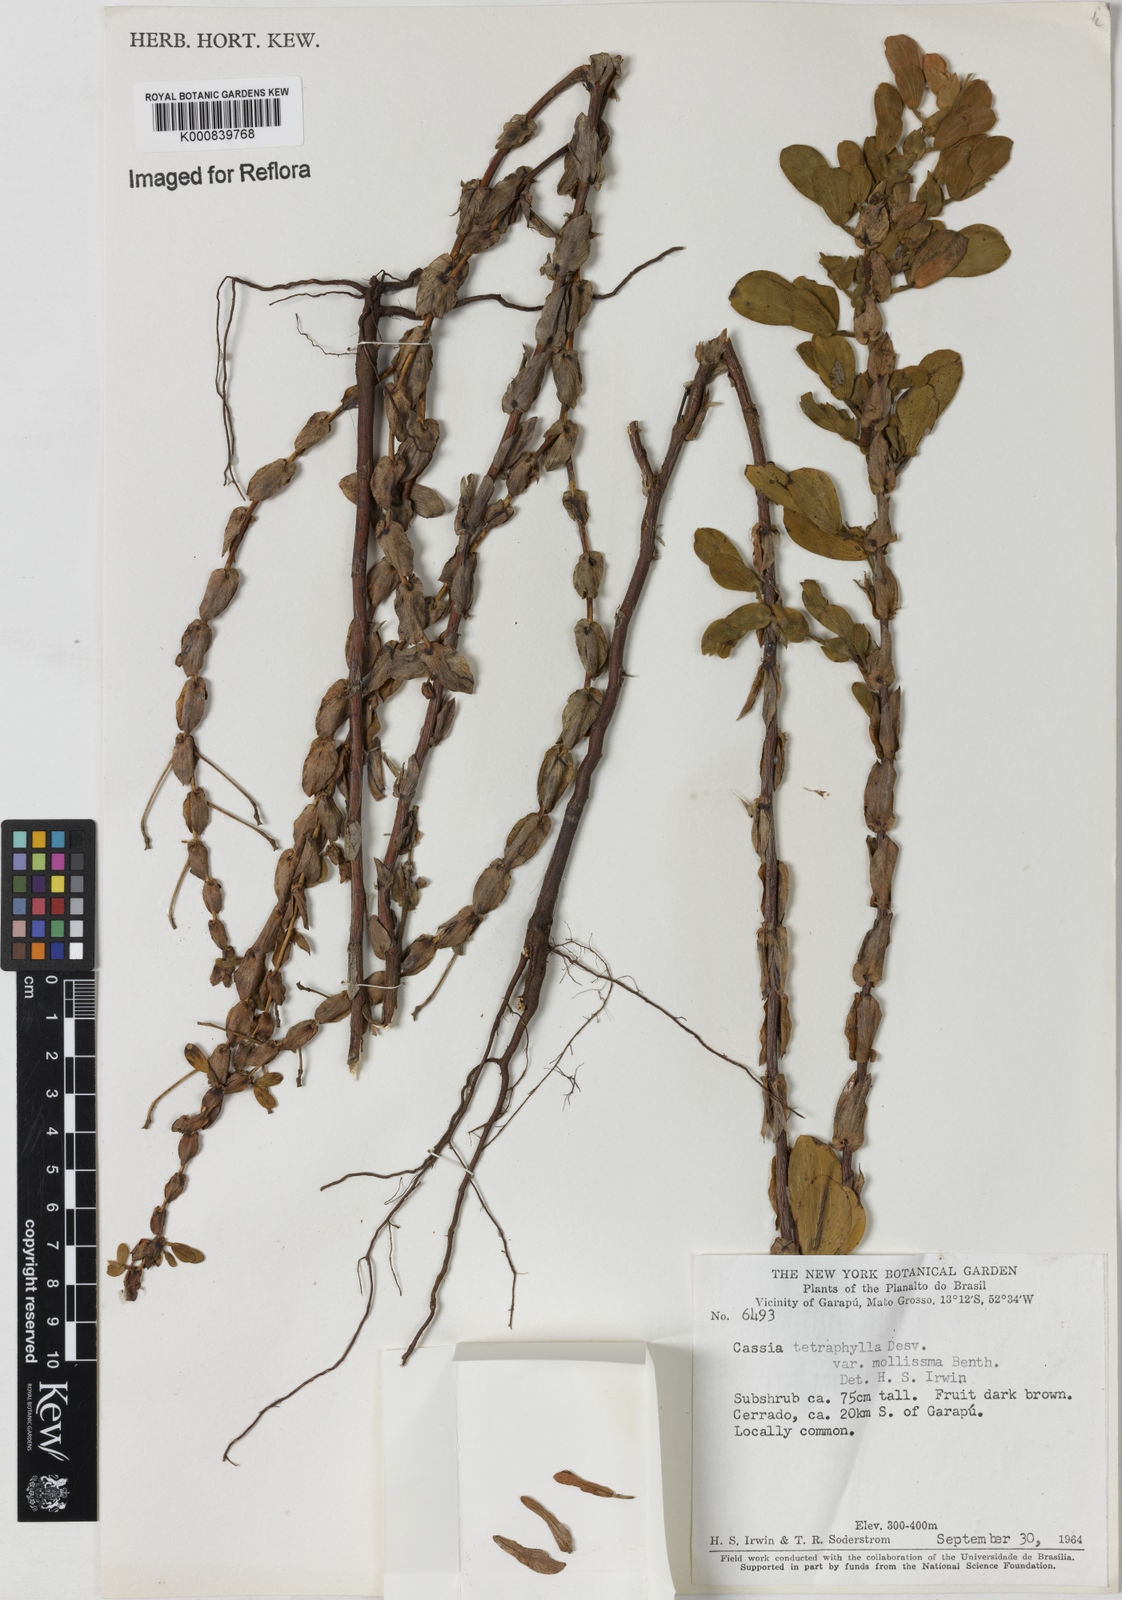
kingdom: Plantae
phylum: Tracheophyta
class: Magnoliopsida
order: Fabales
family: Fabaceae
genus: Chamaecrista
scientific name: Chamaecrista desvauxii
